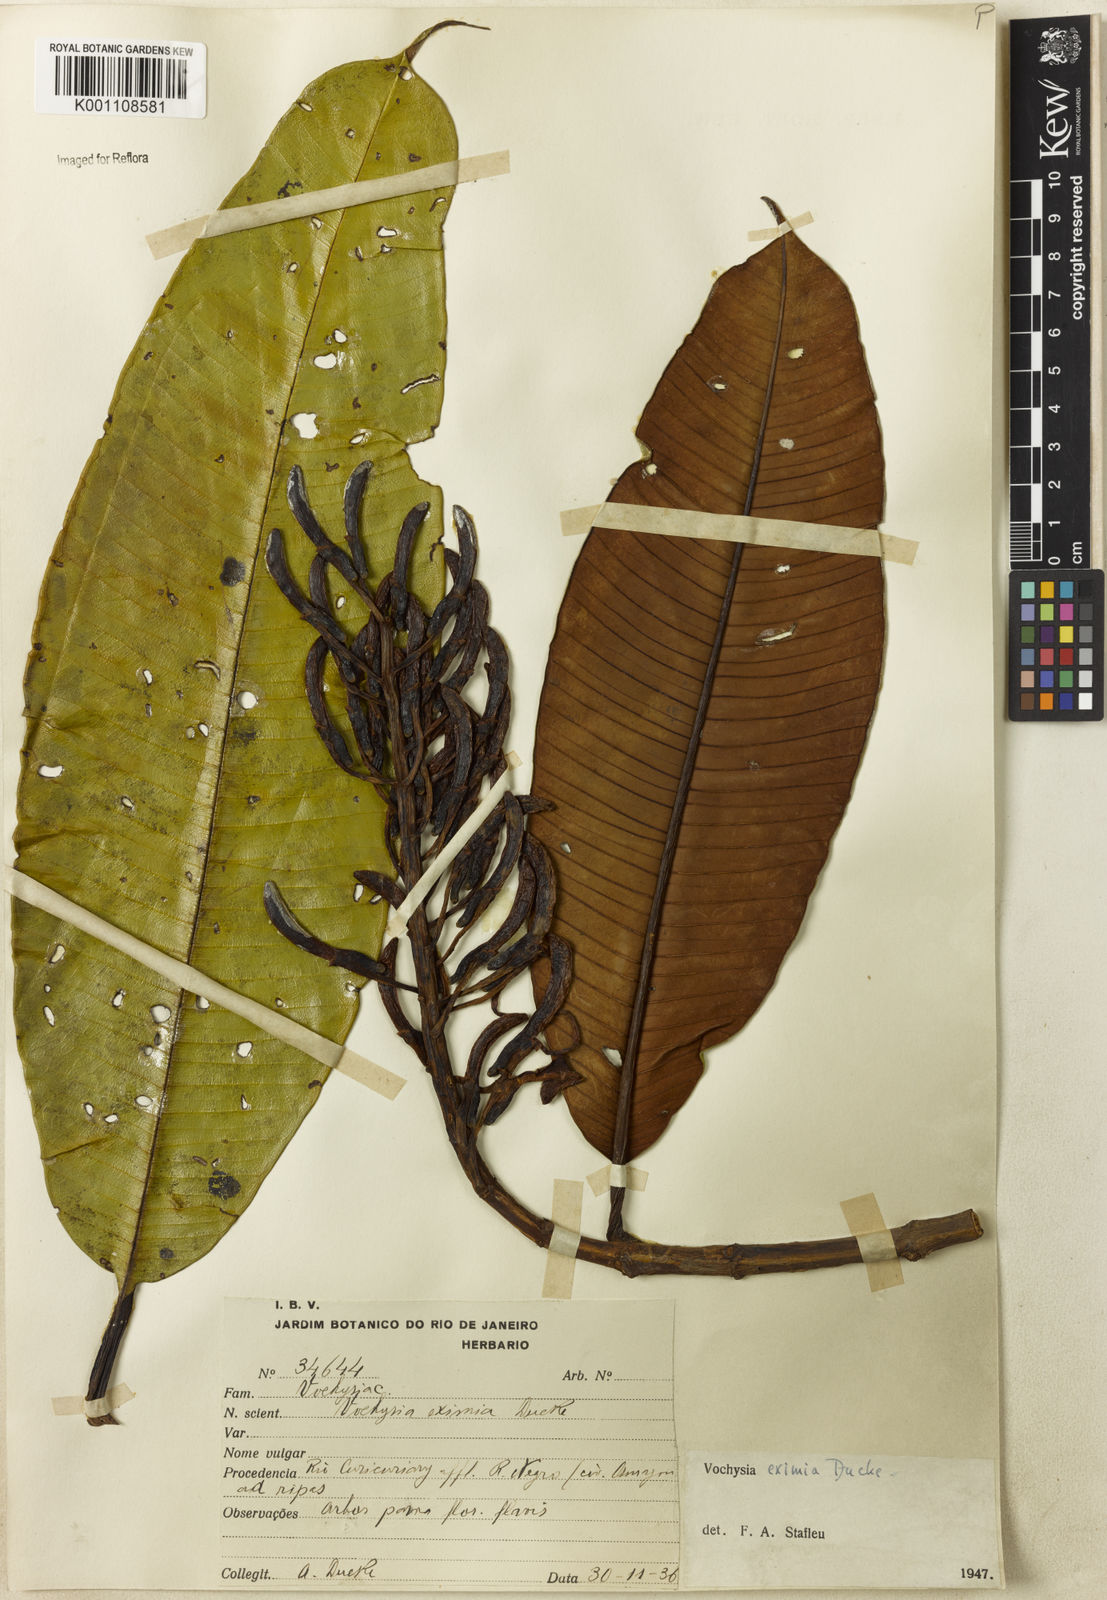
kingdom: Plantae
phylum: Tracheophyta
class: Magnoliopsida
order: Myrtales
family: Vochysiaceae
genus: Vochysia
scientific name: Vochysia eximia
